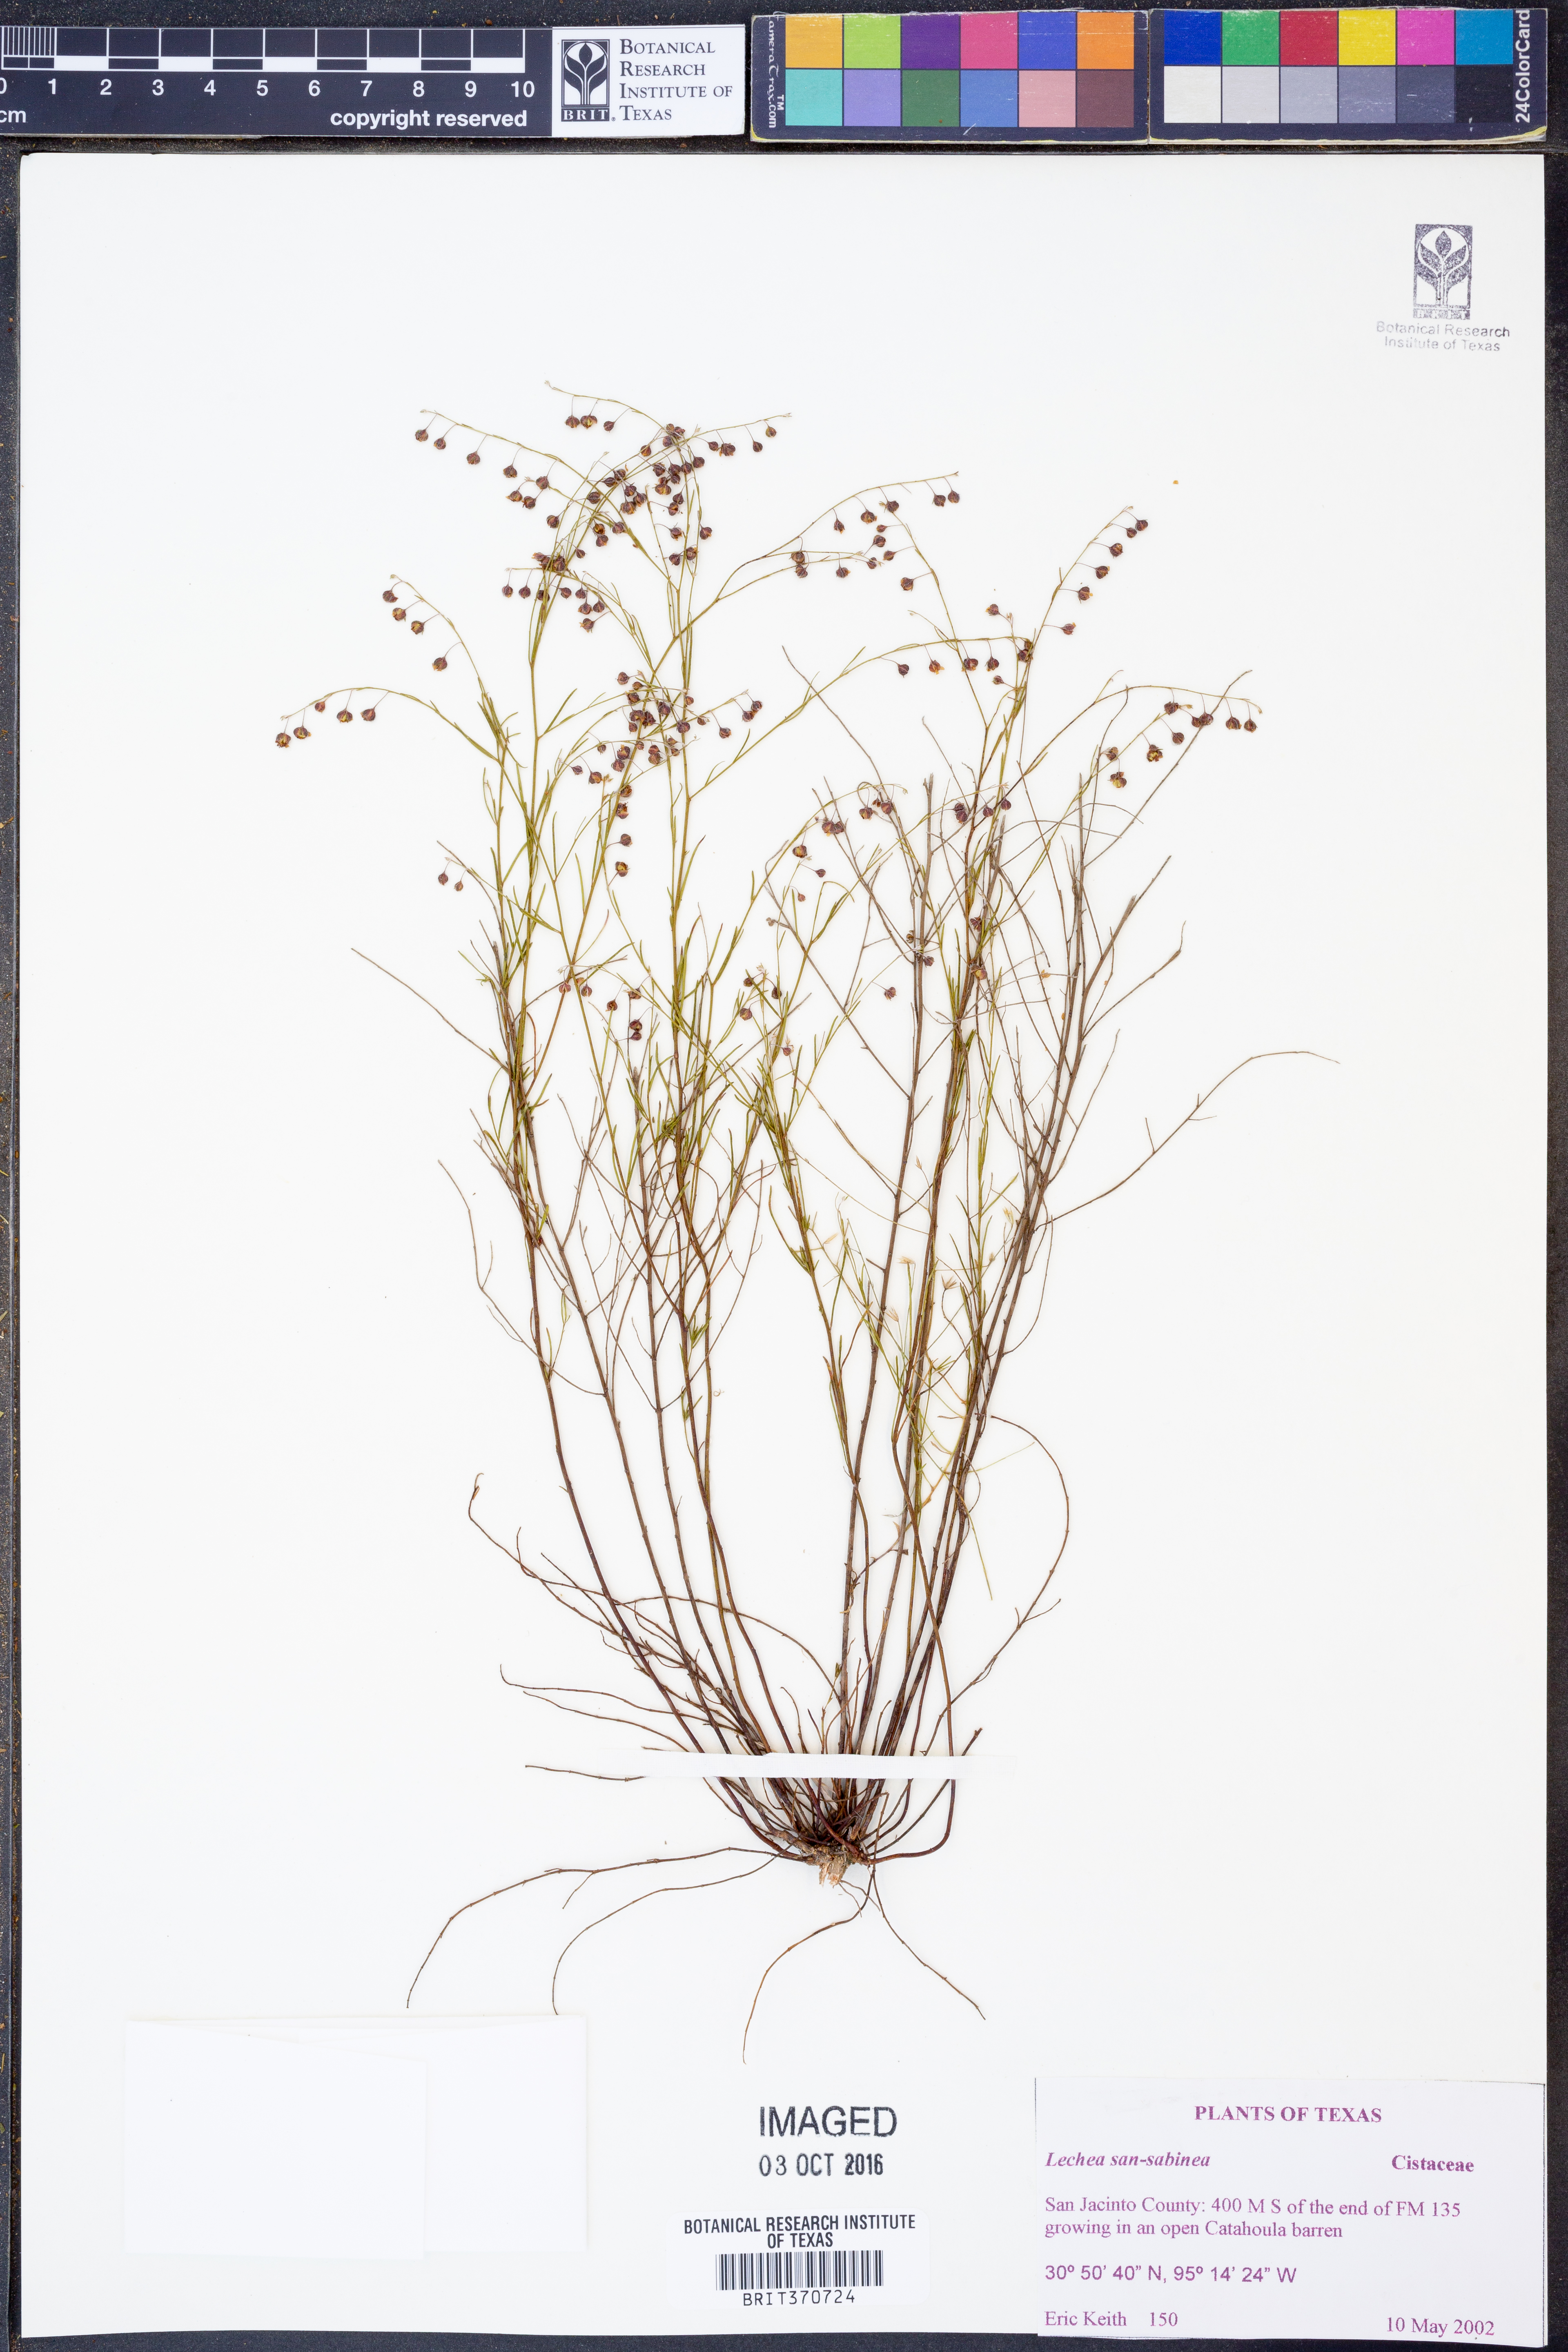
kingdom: Plantae
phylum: Tracheophyta
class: Magnoliopsida
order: Malvales
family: Cistaceae
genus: Lechea
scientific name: Lechea san-sabeana
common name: San saba pinweed
